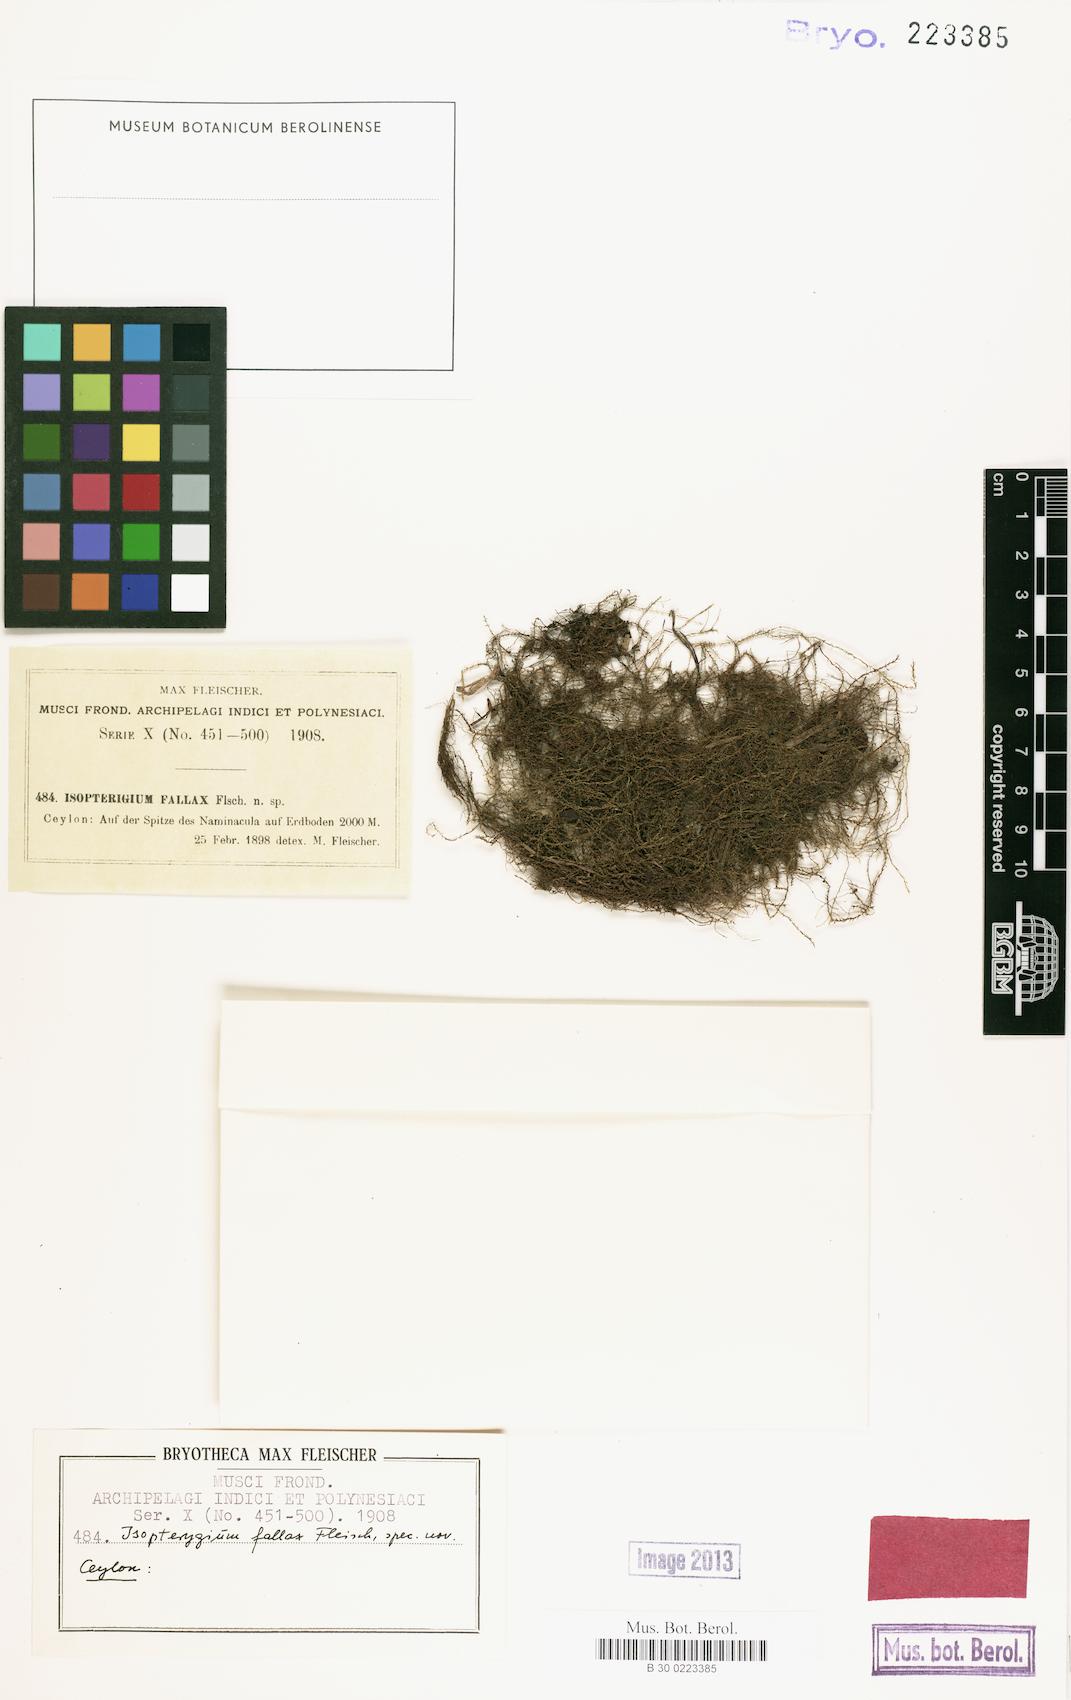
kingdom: Plantae
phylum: Bryophyta
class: Bryopsida
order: Hypnales
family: Pylaisiadelphaceae
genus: Isopterygium
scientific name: Isopterygium fallax
